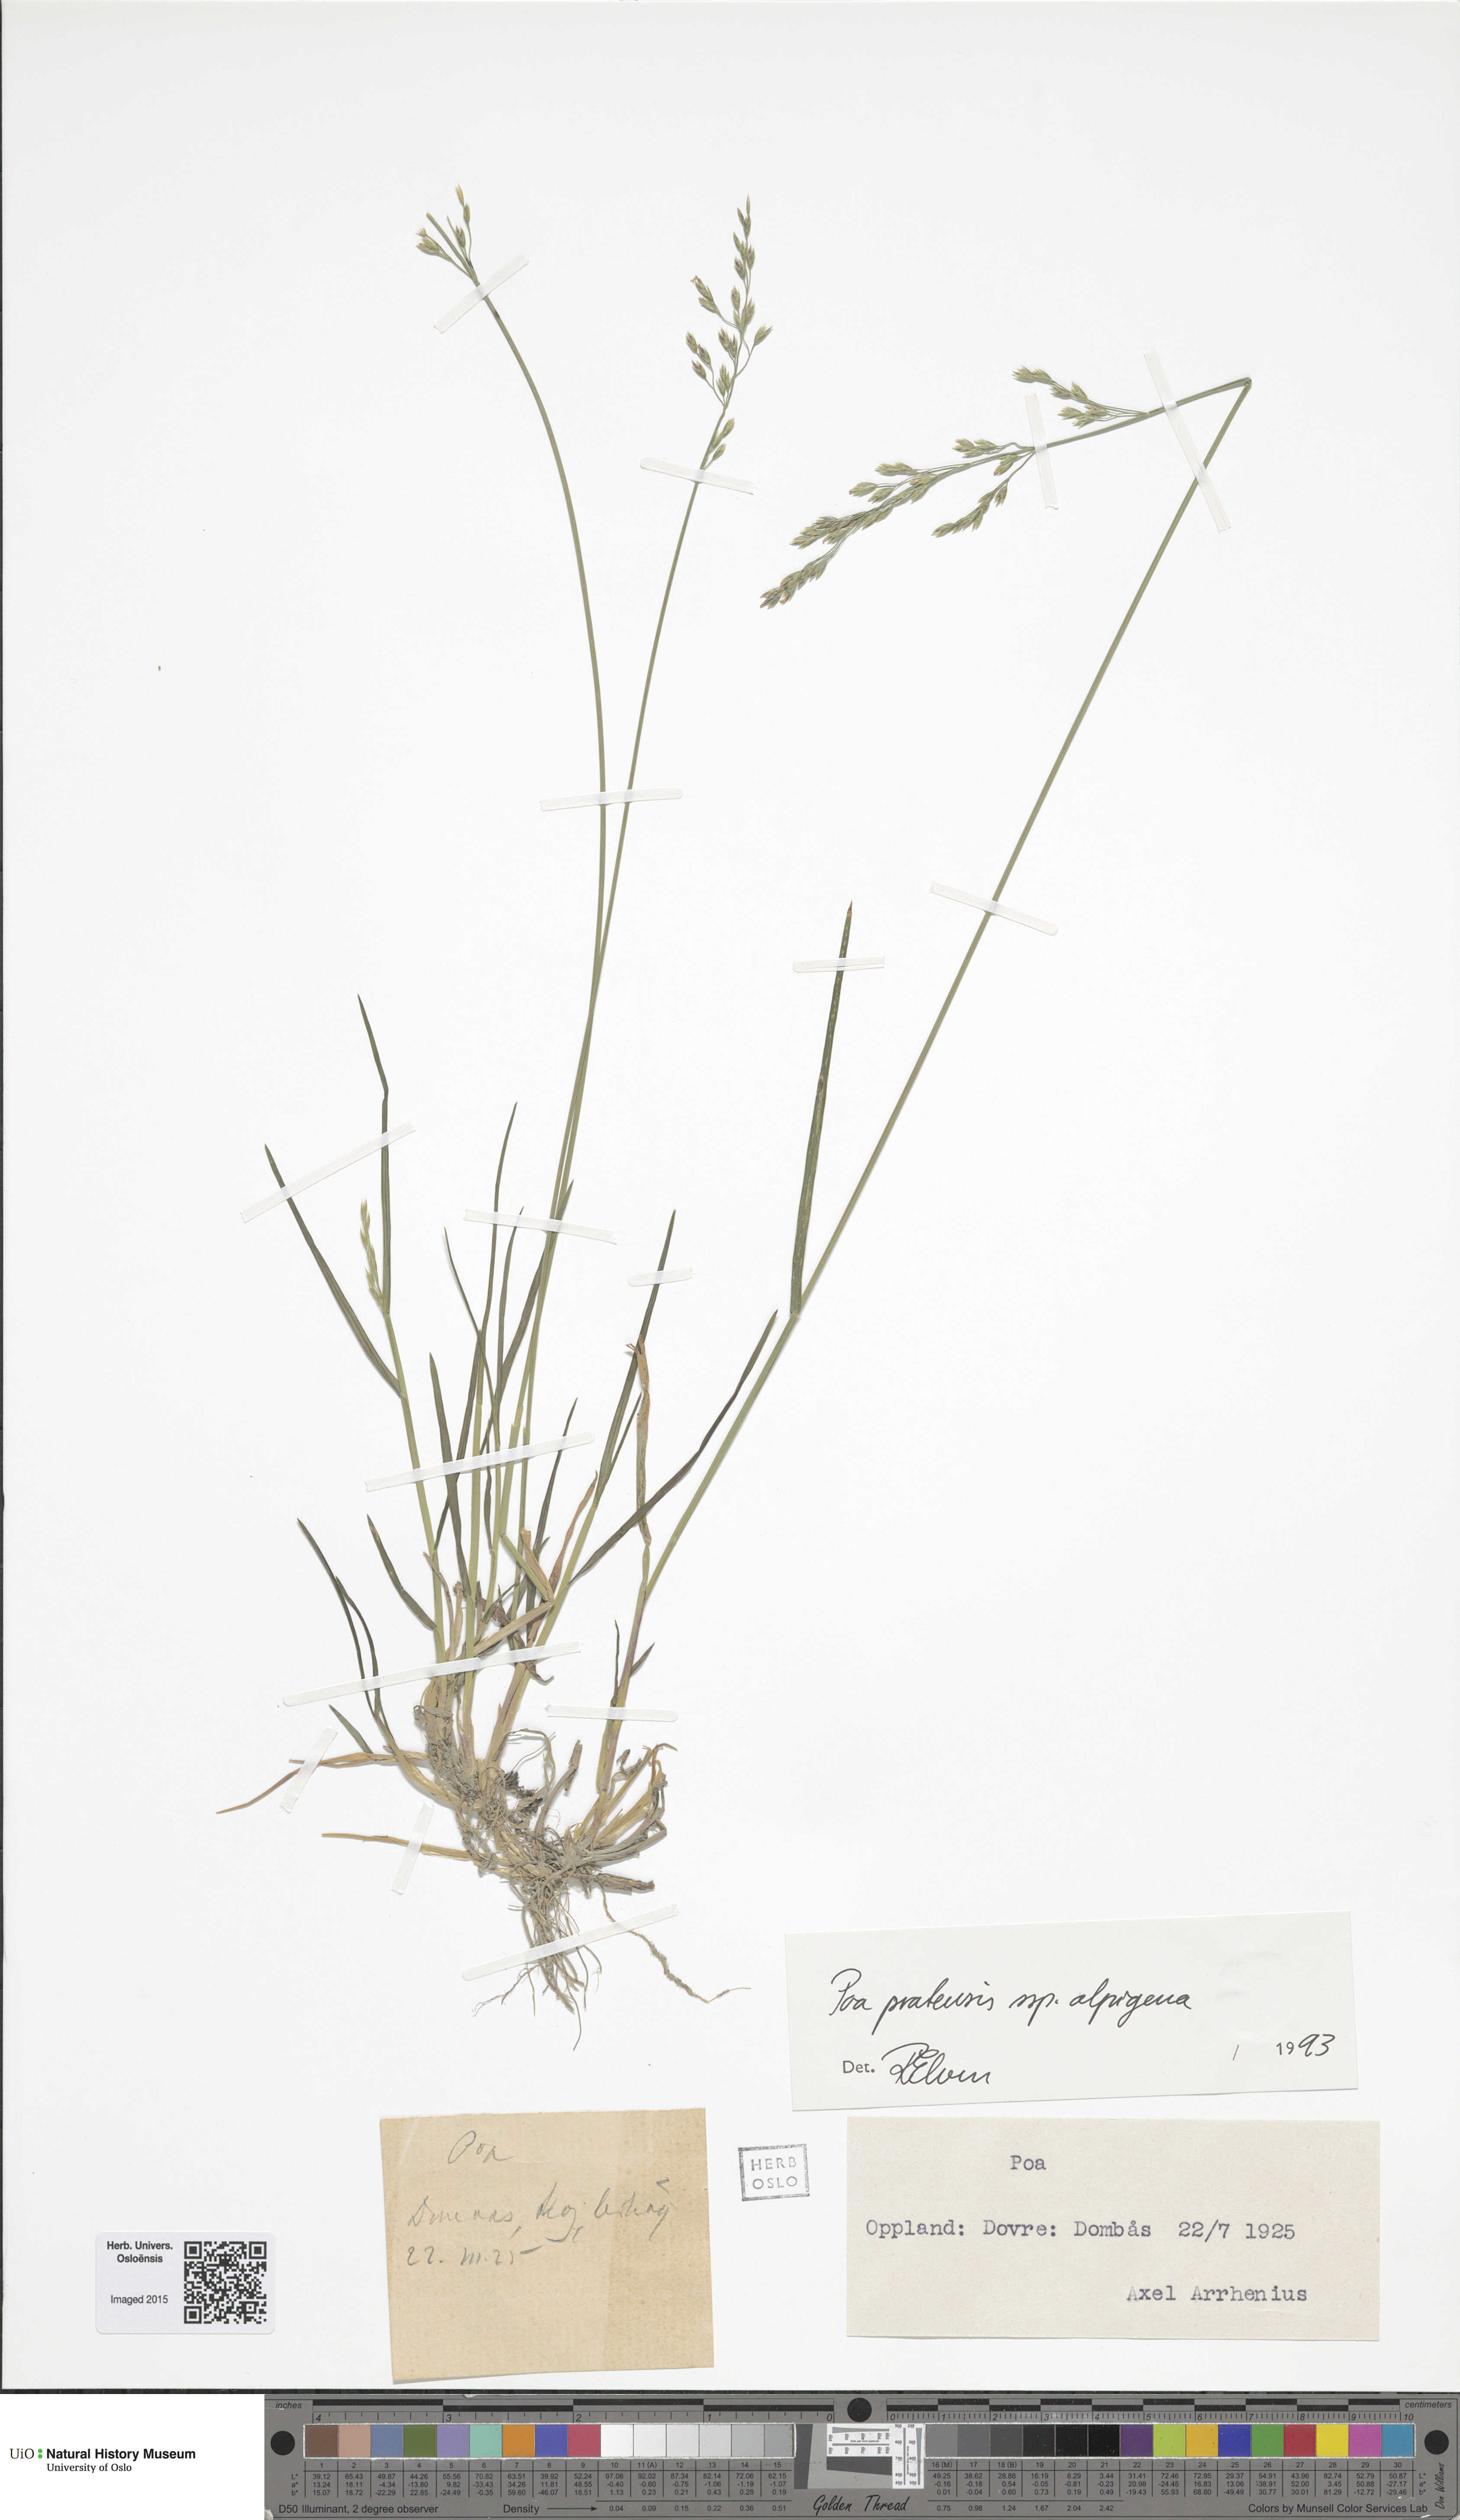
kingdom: Plantae
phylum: Tracheophyta
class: Liliopsida
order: Poales
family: Poaceae
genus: Poa
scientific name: Poa alpigena
